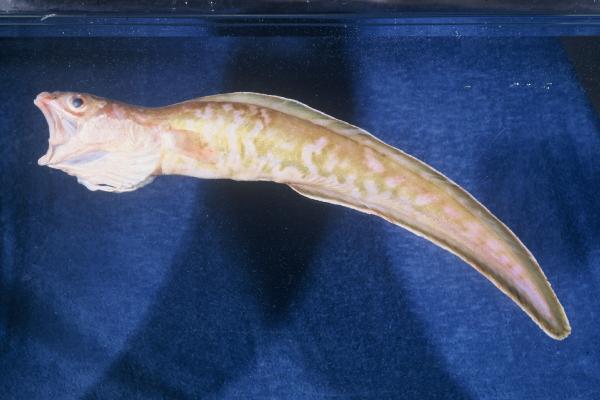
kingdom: Animalia
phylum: Chordata
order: Ophidiiformes
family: Ophidiidae
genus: Genypterus
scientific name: Genypterus capensis
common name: Kingklip
